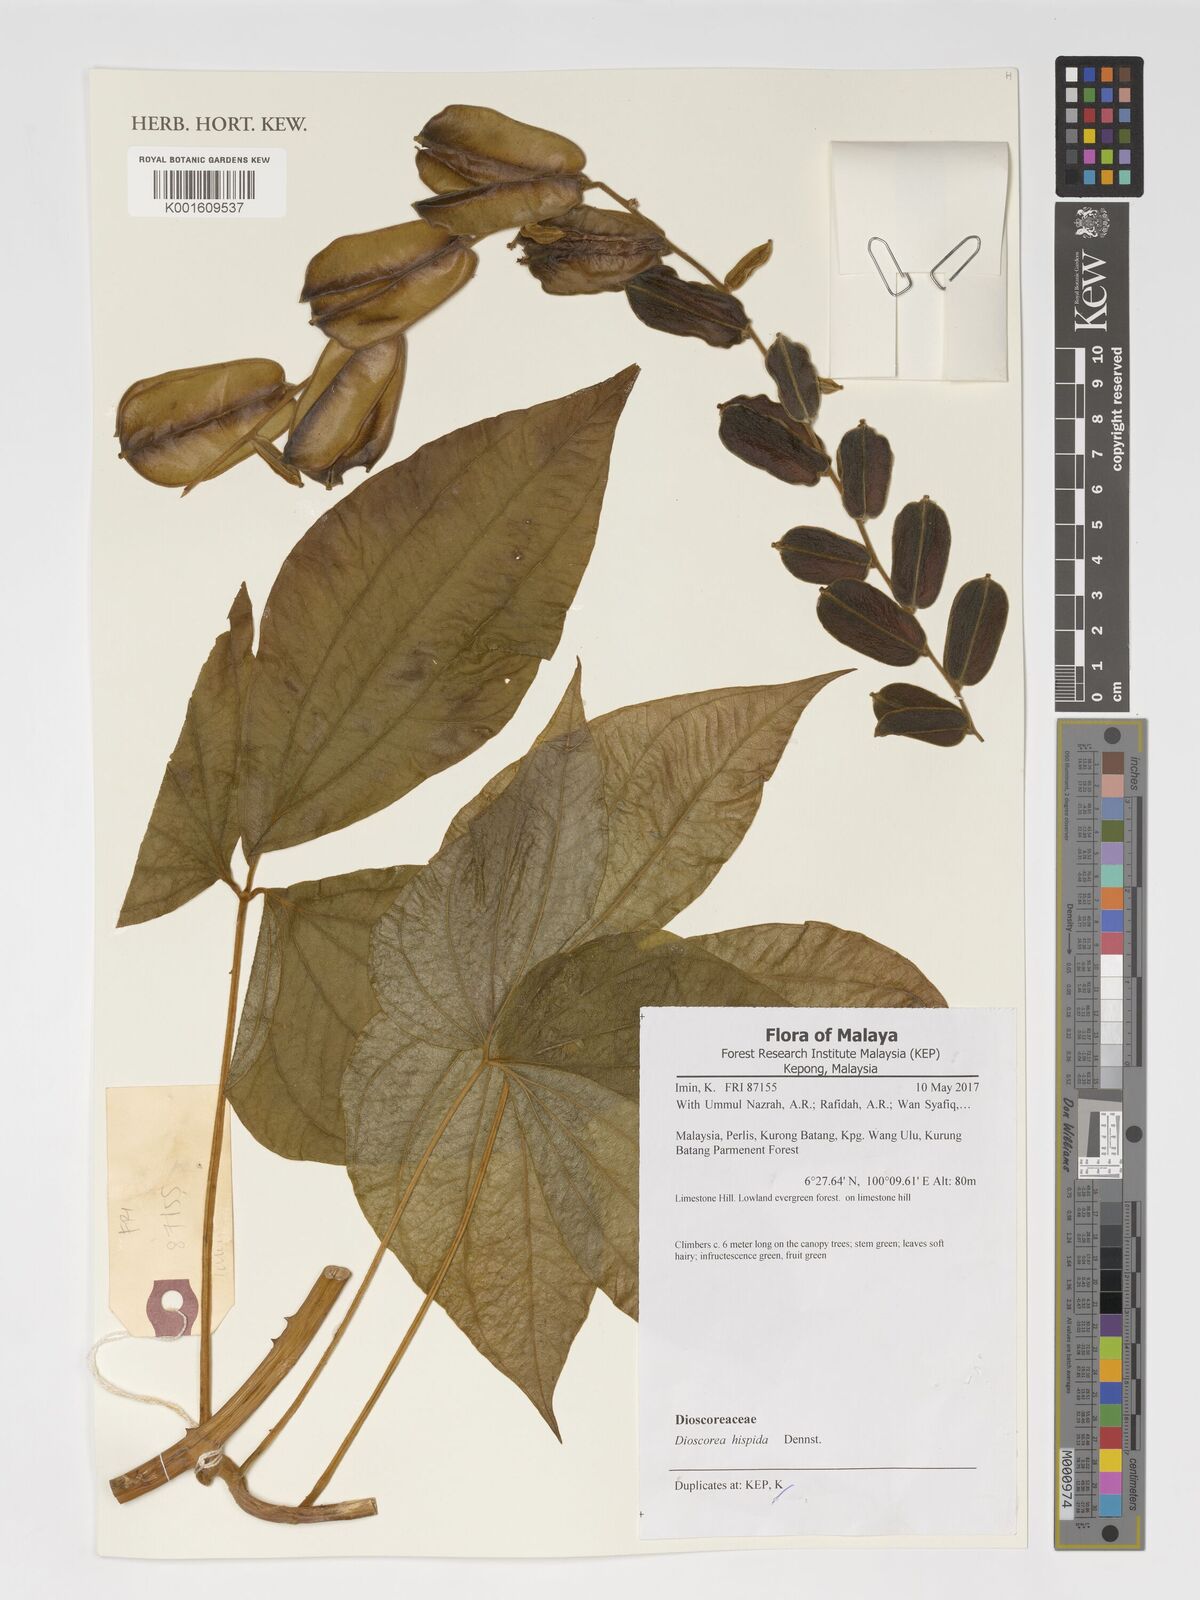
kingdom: Plantae
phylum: Tracheophyta
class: Liliopsida
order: Dioscoreales
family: Dioscoreaceae
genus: Dioscorea
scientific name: Dioscorea hispida
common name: Asiatic bitter yam
